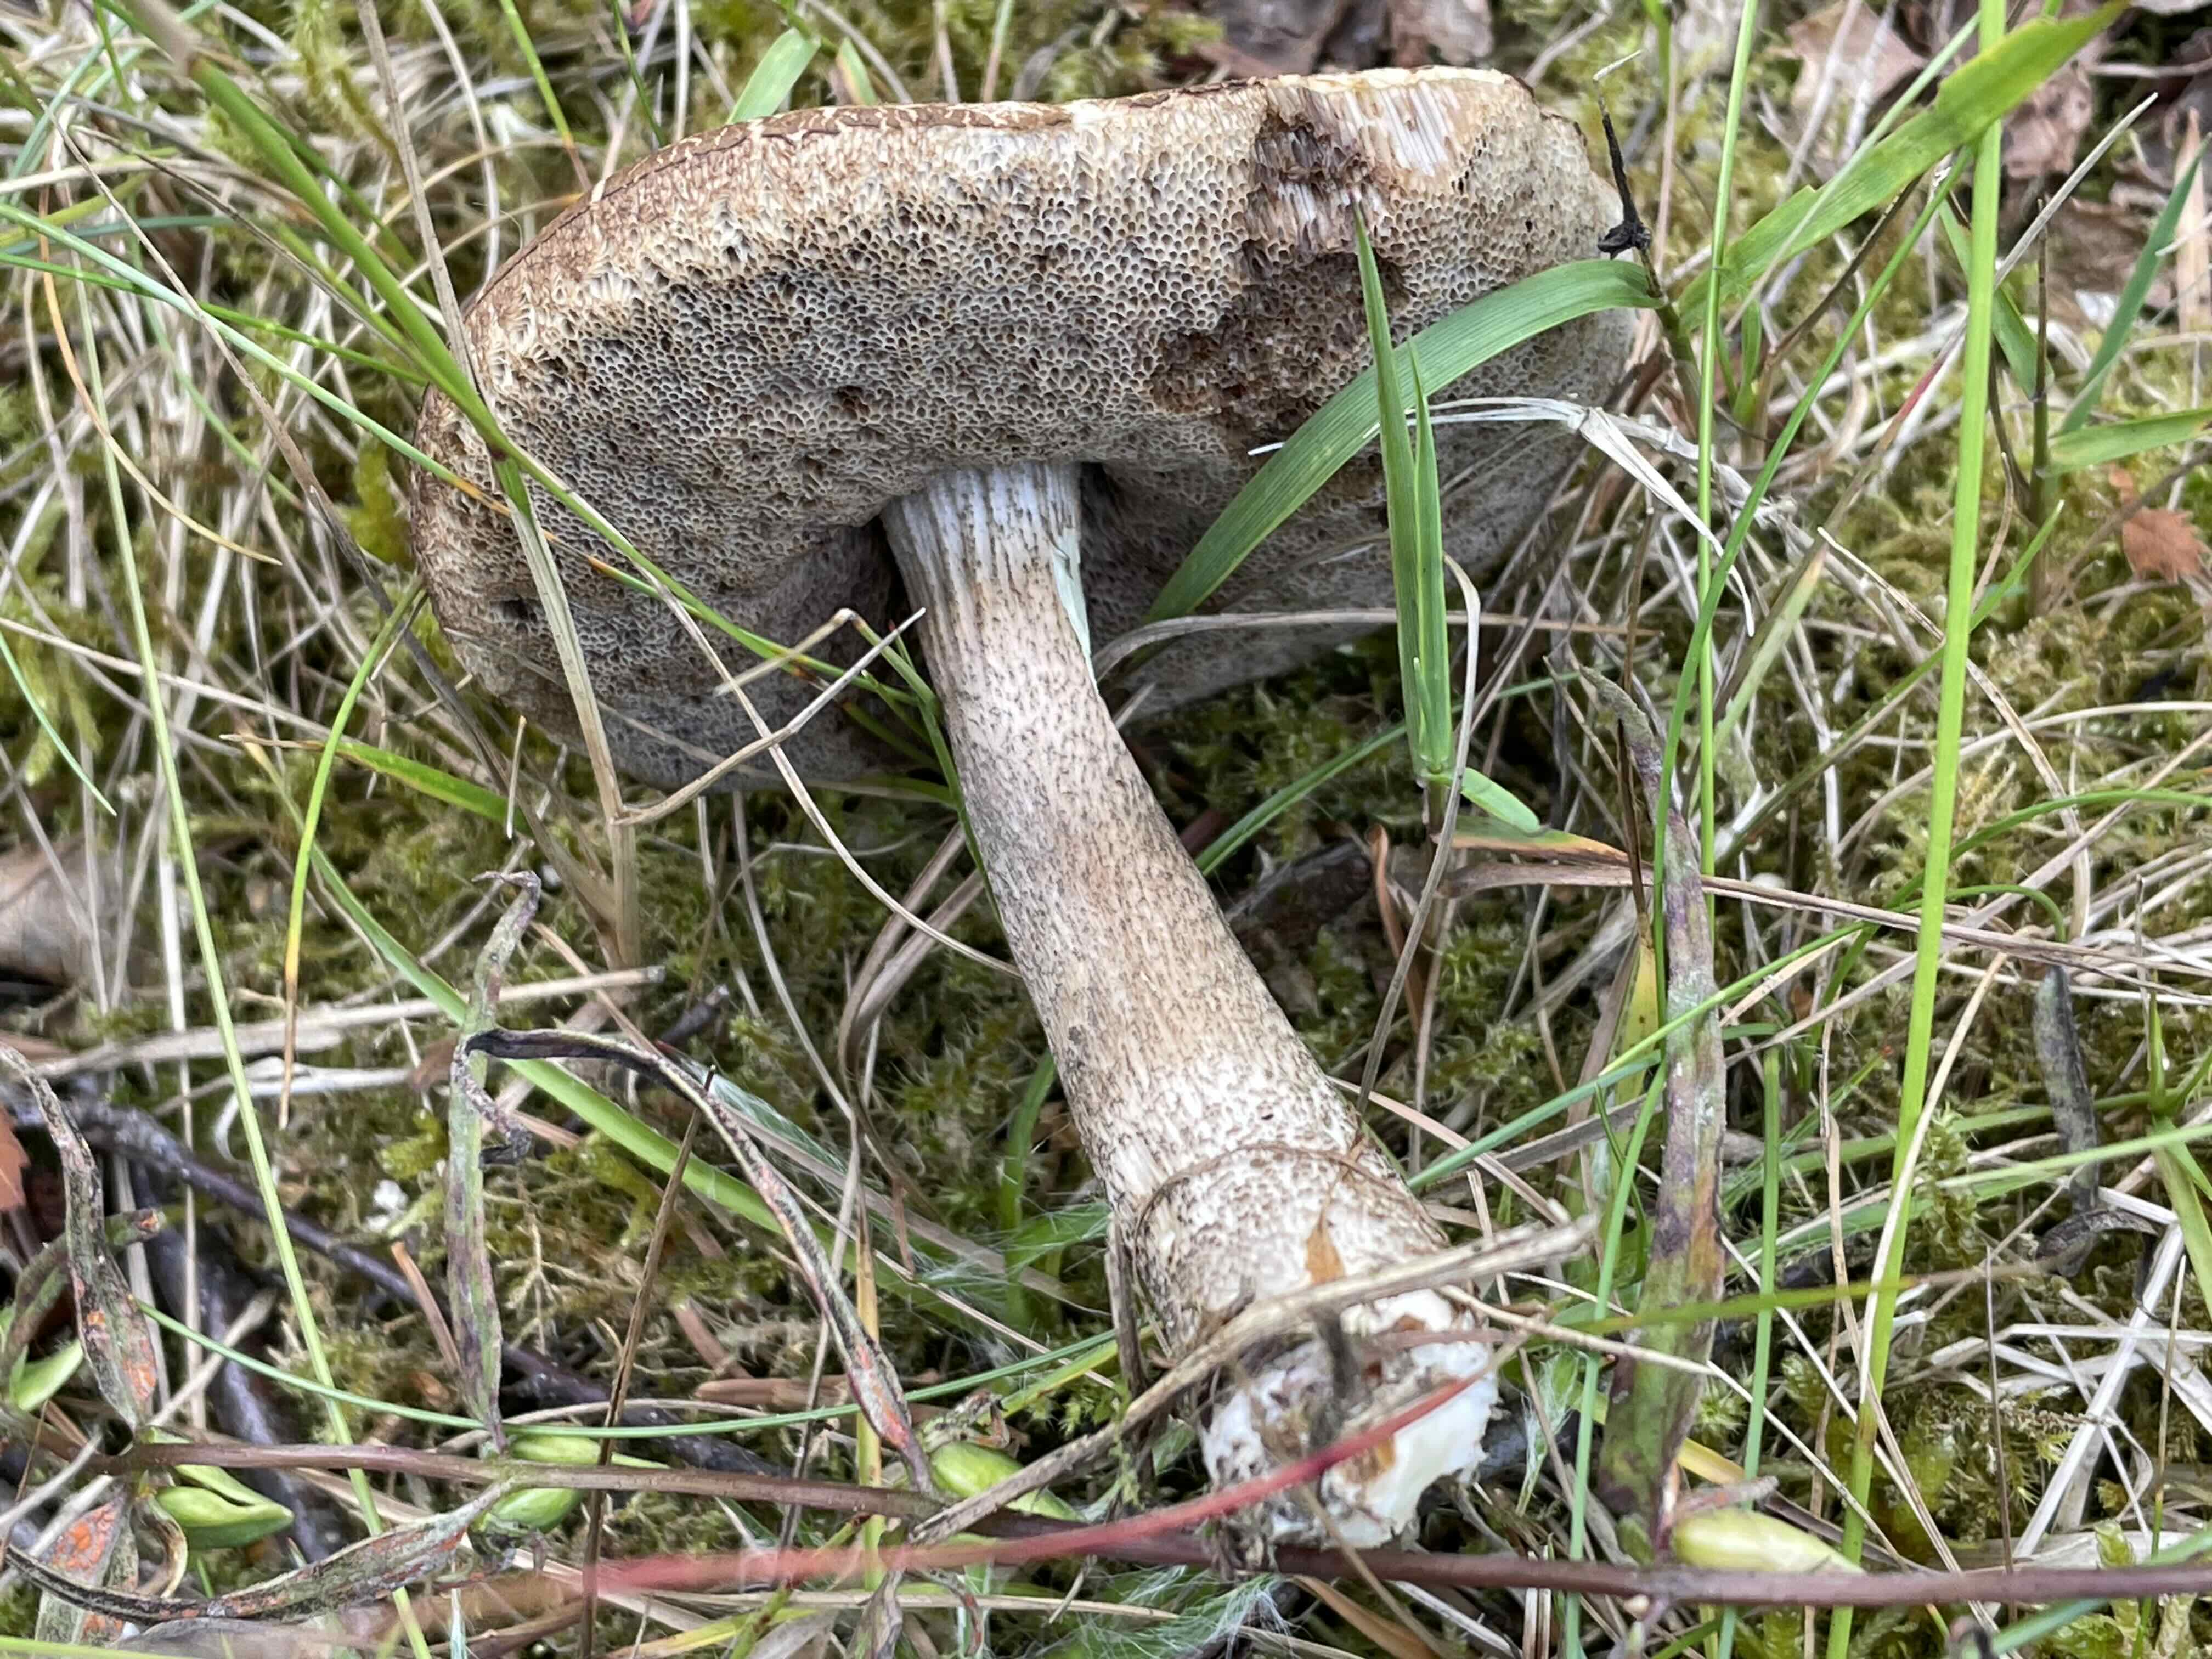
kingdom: Fungi
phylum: Basidiomycota
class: Agaricomycetes
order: Boletales
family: Boletaceae
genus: Leccinum
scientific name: Leccinum cyaneobasileucum
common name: almindelig skælrørhat
